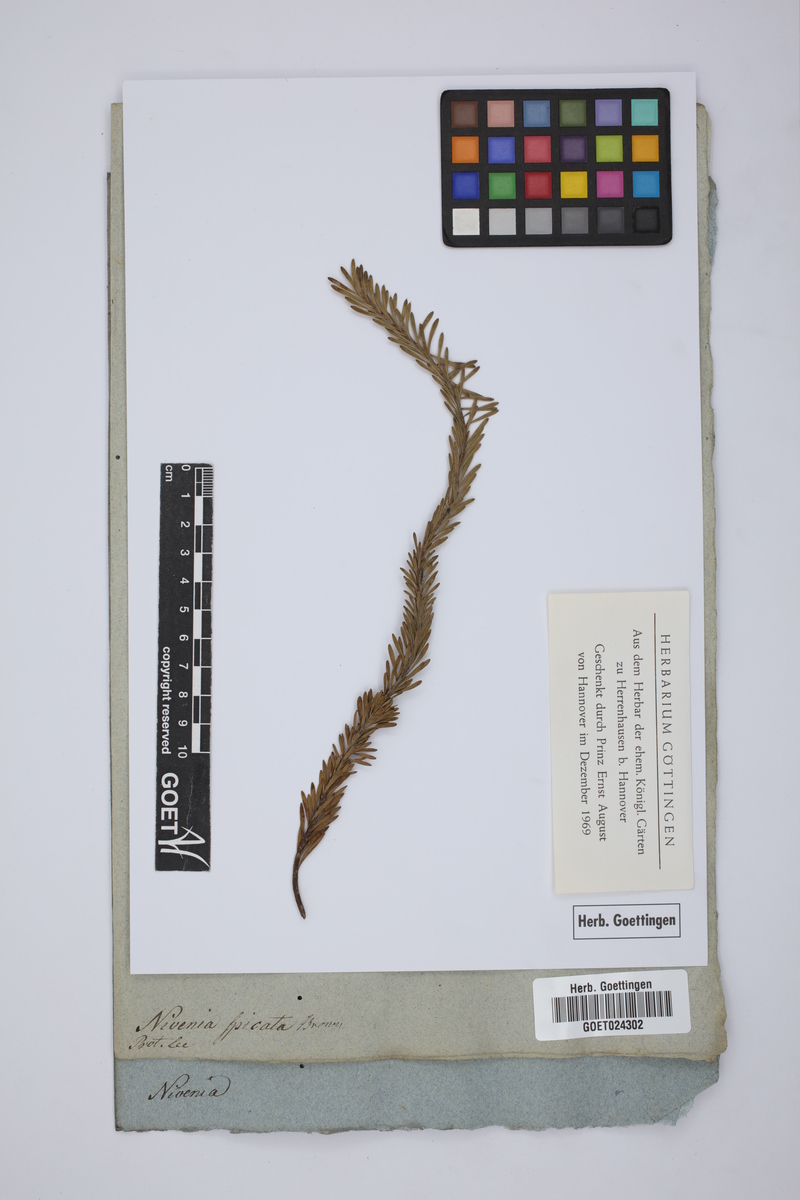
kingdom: Plantae
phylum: Tracheophyta
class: Magnoliopsida
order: Proteales
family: Proteaceae
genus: Paranomus
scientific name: Paranomus spicatus
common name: Kogelberg sceptre
